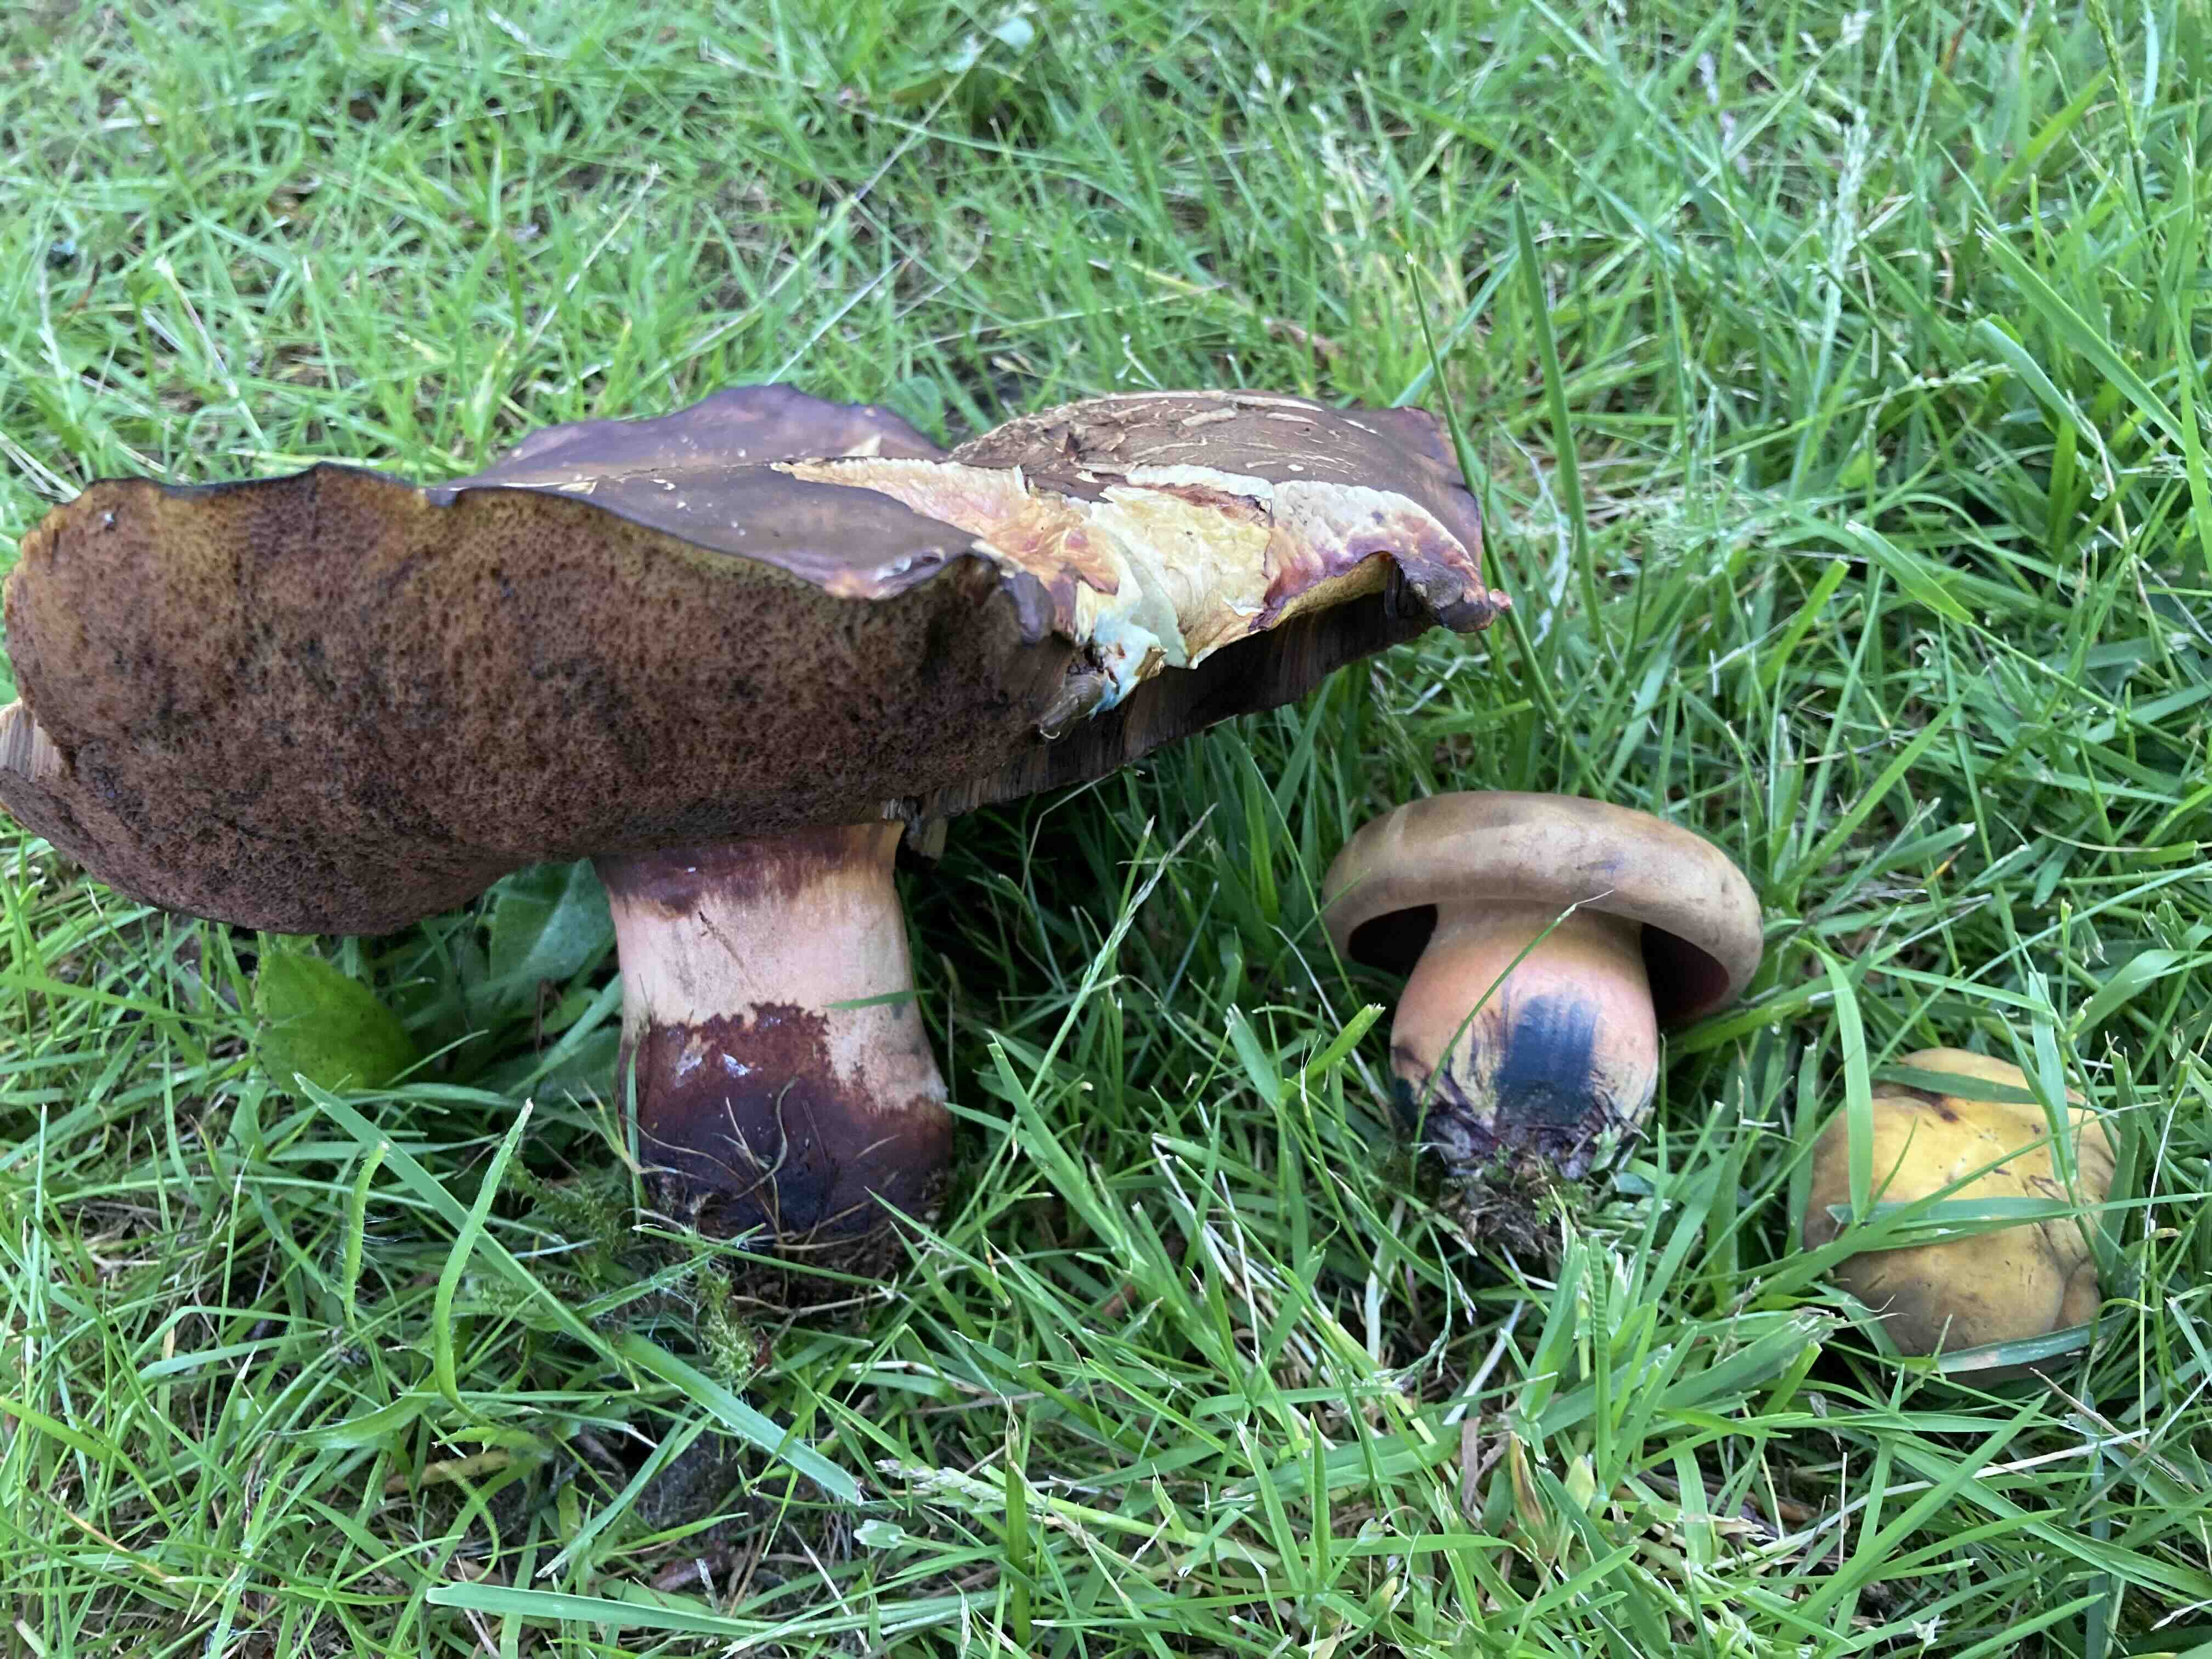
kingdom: Fungi
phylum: Basidiomycota
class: Agaricomycetes
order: Boletales
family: Boletaceae
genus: Neoboletus
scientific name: Neoboletus erythropus
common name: punktstokket indigorørhat
